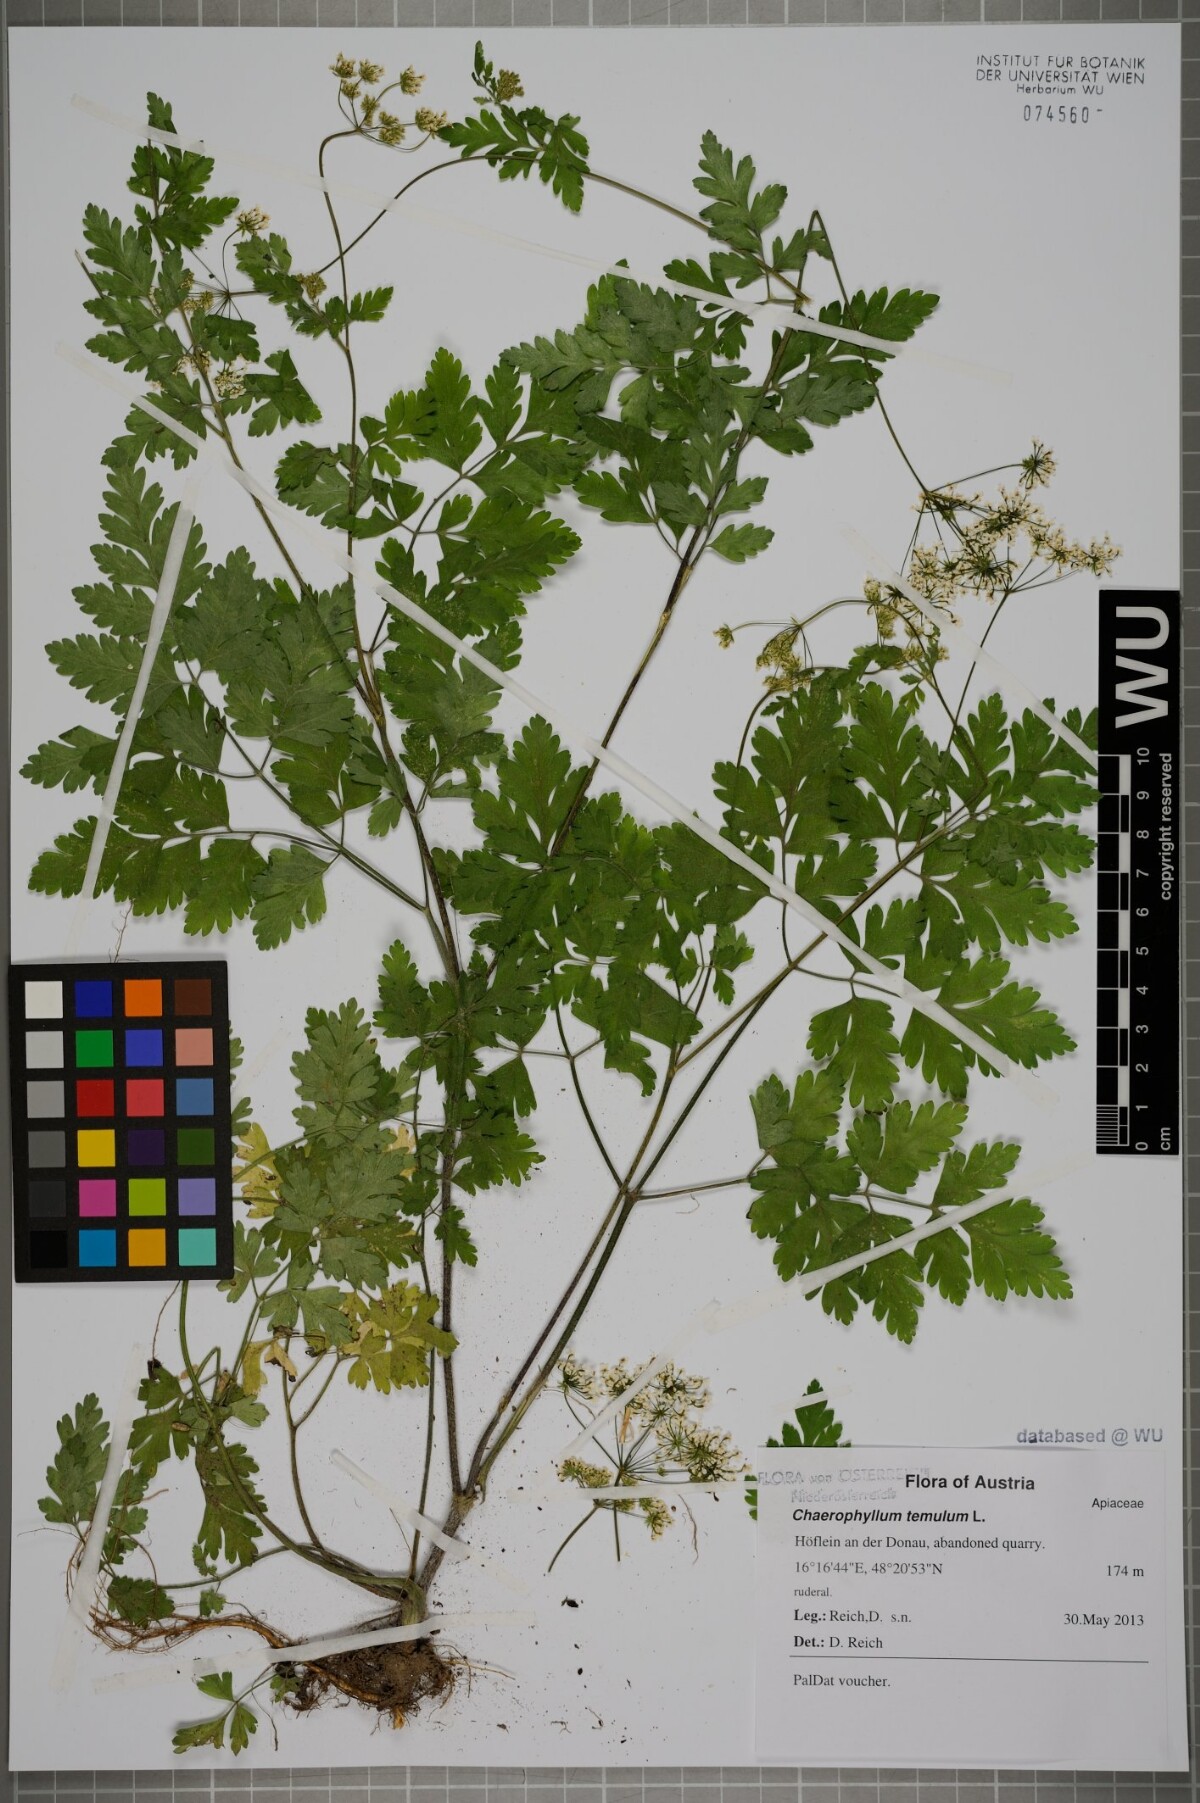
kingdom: Plantae
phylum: Tracheophyta
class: Magnoliopsida
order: Apiales
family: Apiaceae
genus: Chaerophyllum
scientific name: Chaerophyllum temulum
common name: Rough chervil
